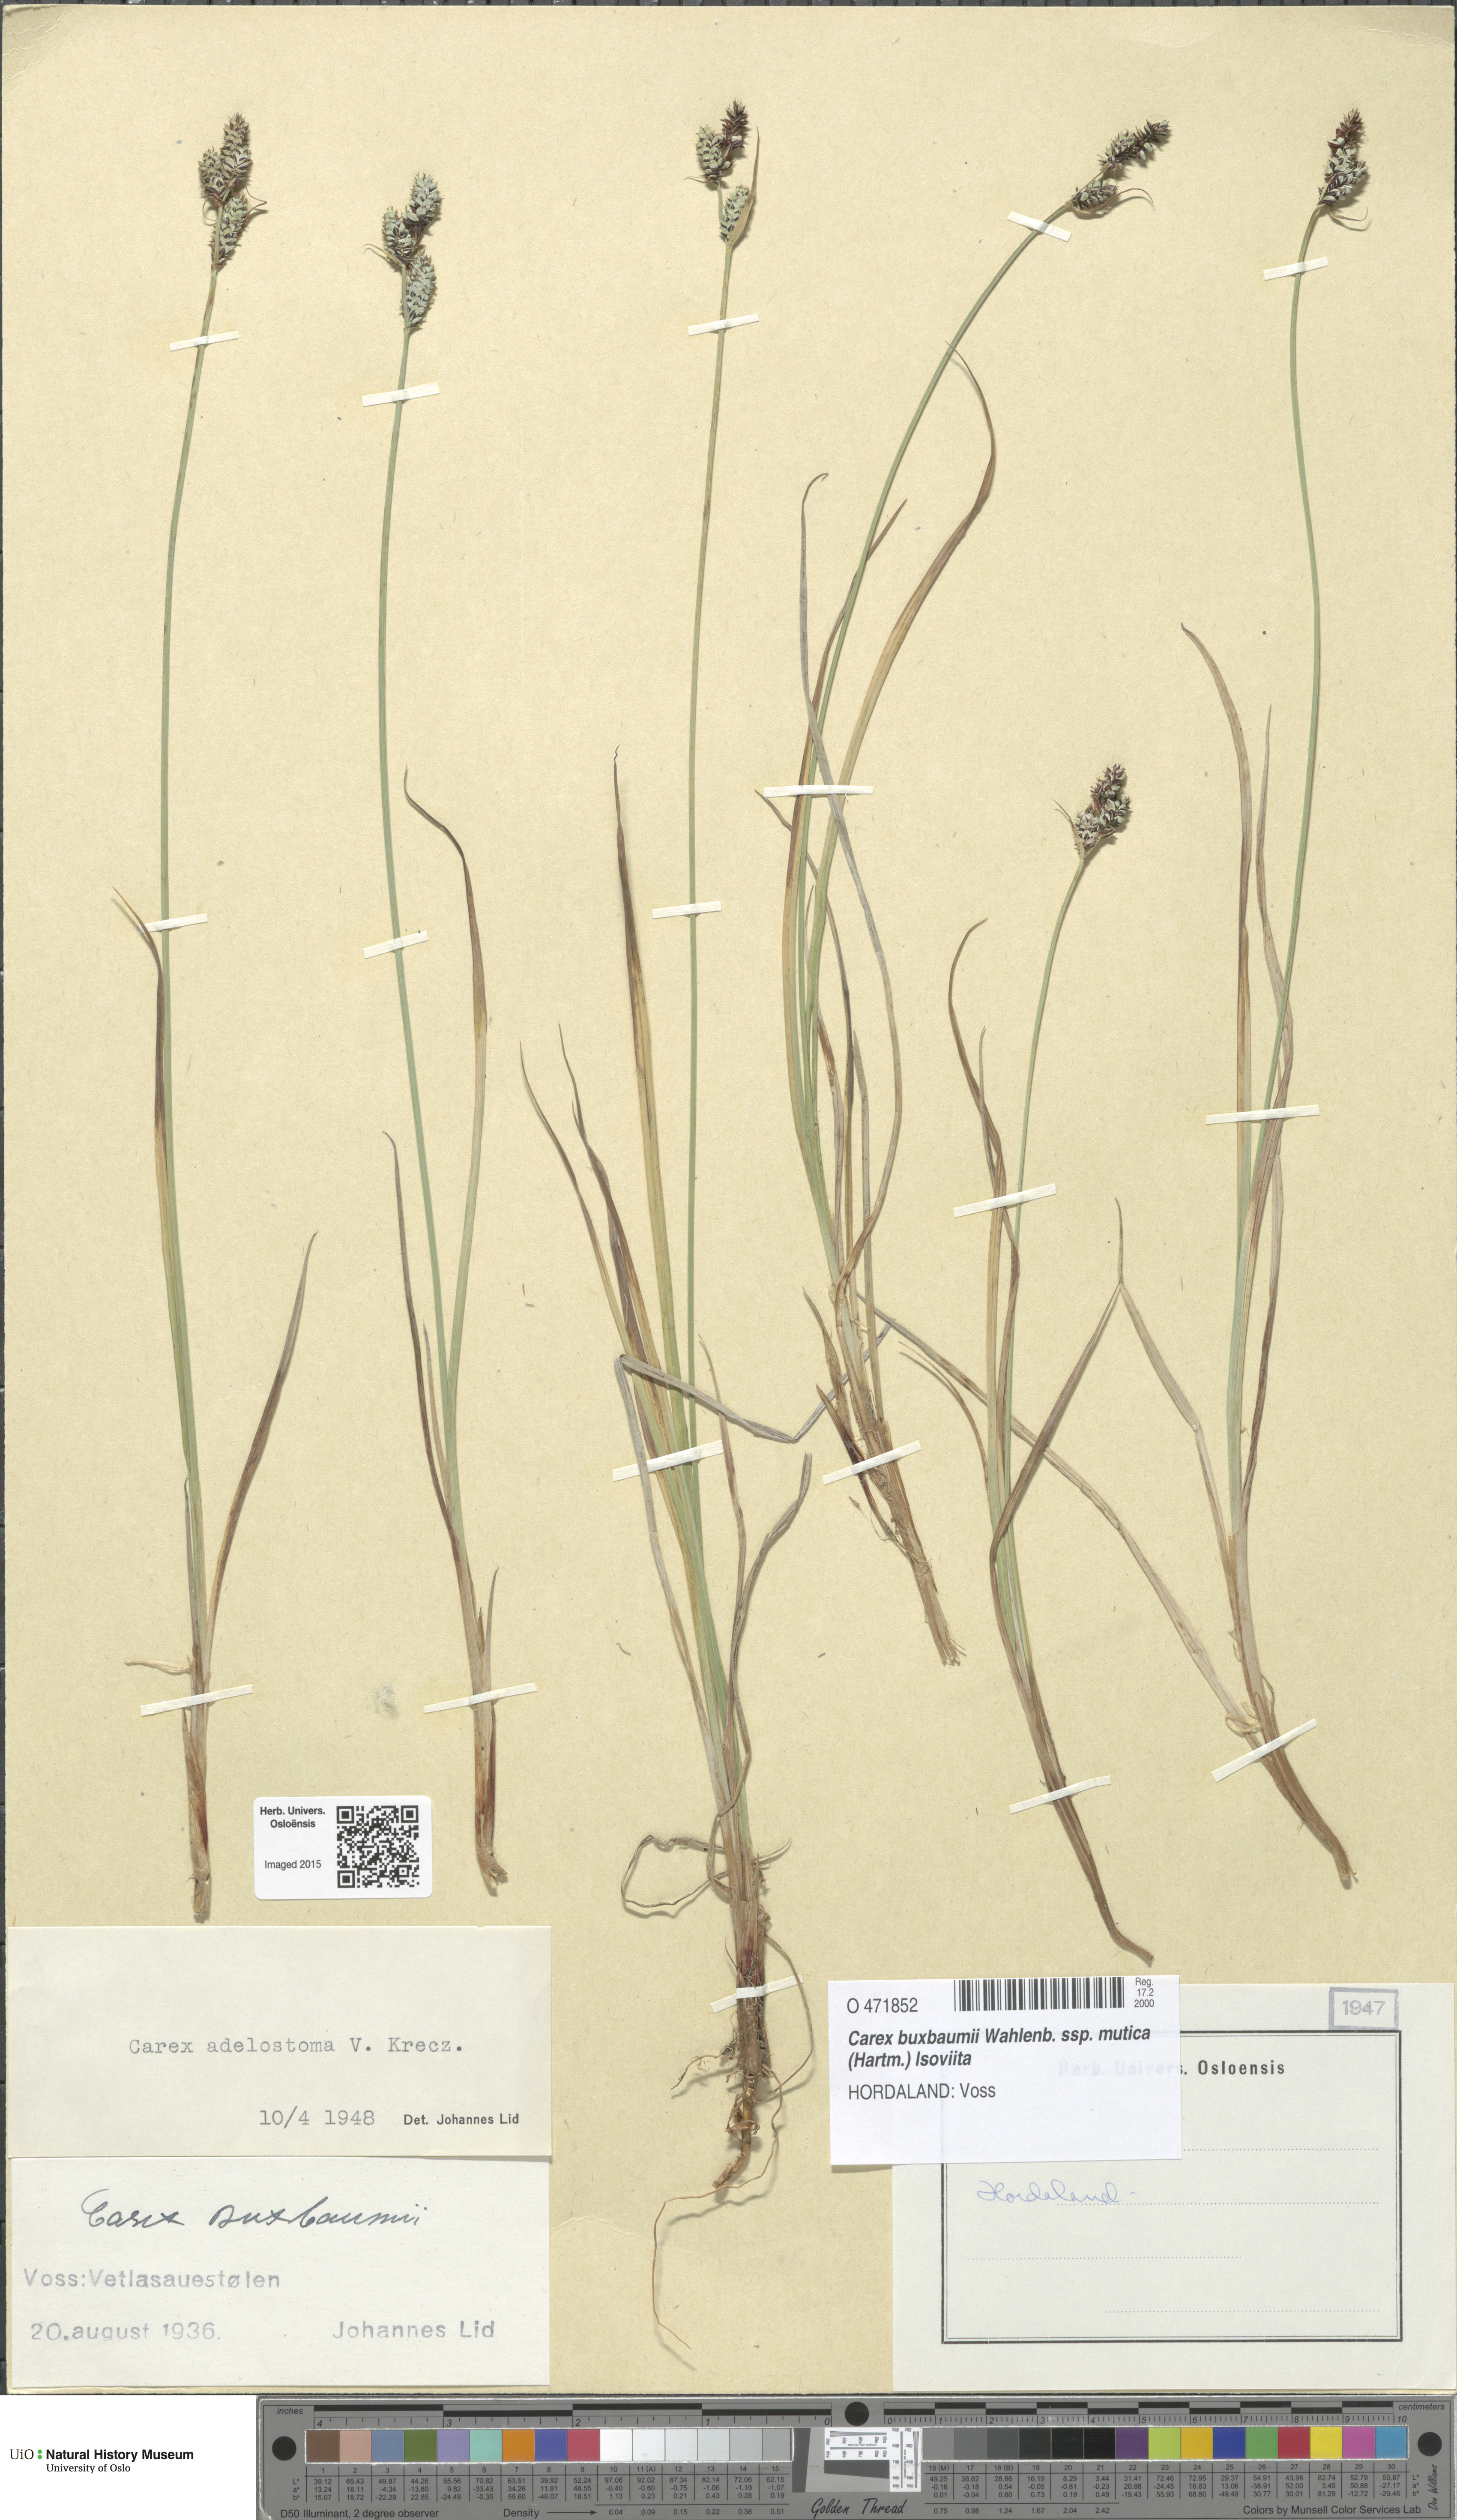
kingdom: Plantae
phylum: Tracheophyta
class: Liliopsida
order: Poales
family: Cyperaceae
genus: Carex
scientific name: Carex adelostoma
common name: Circumpolar sedge
